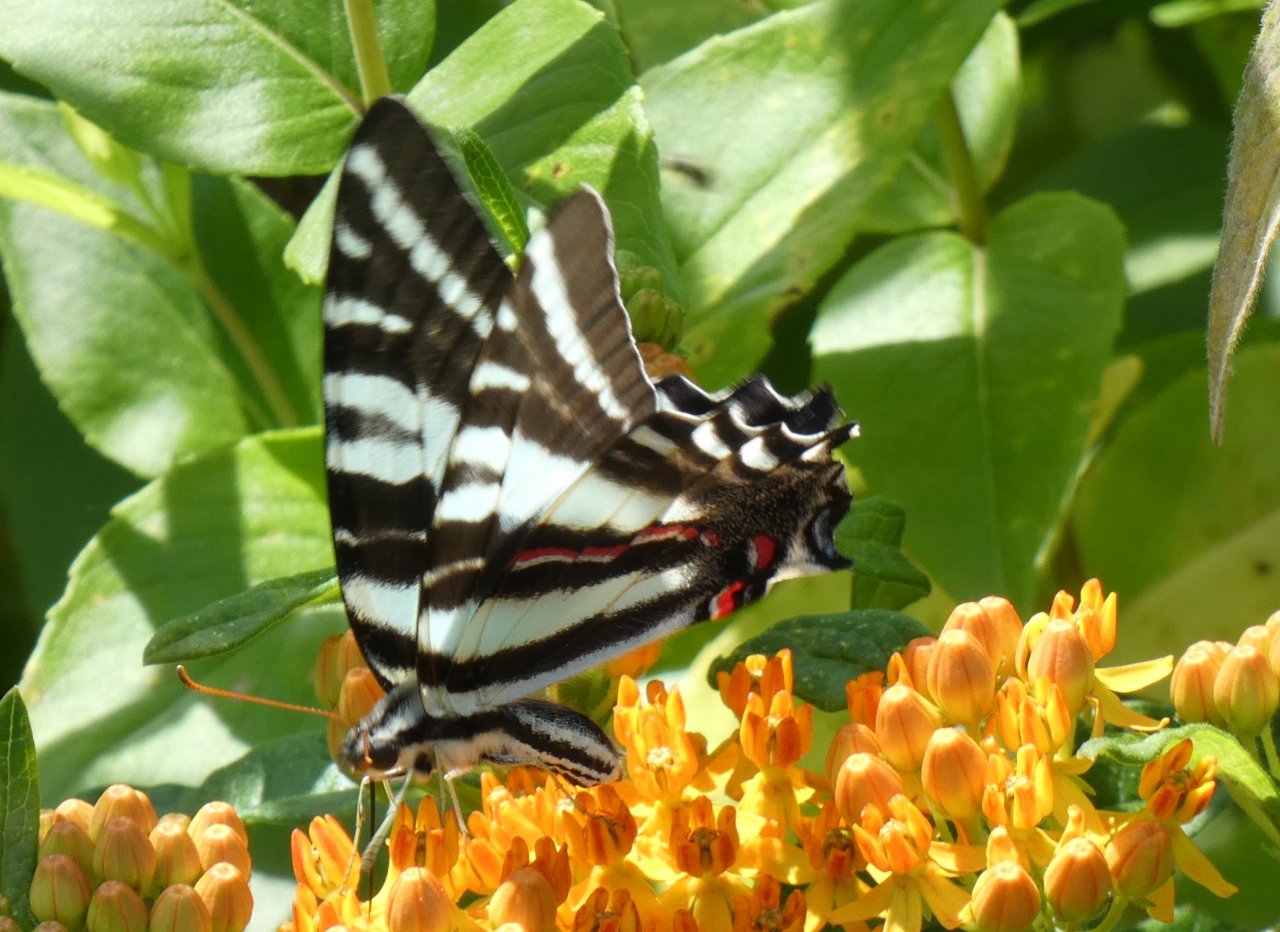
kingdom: Animalia
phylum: Arthropoda
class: Insecta
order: Lepidoptera
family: Papilionidae
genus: Protographium
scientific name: Protographium marcellus
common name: Zebra Swallowtail
